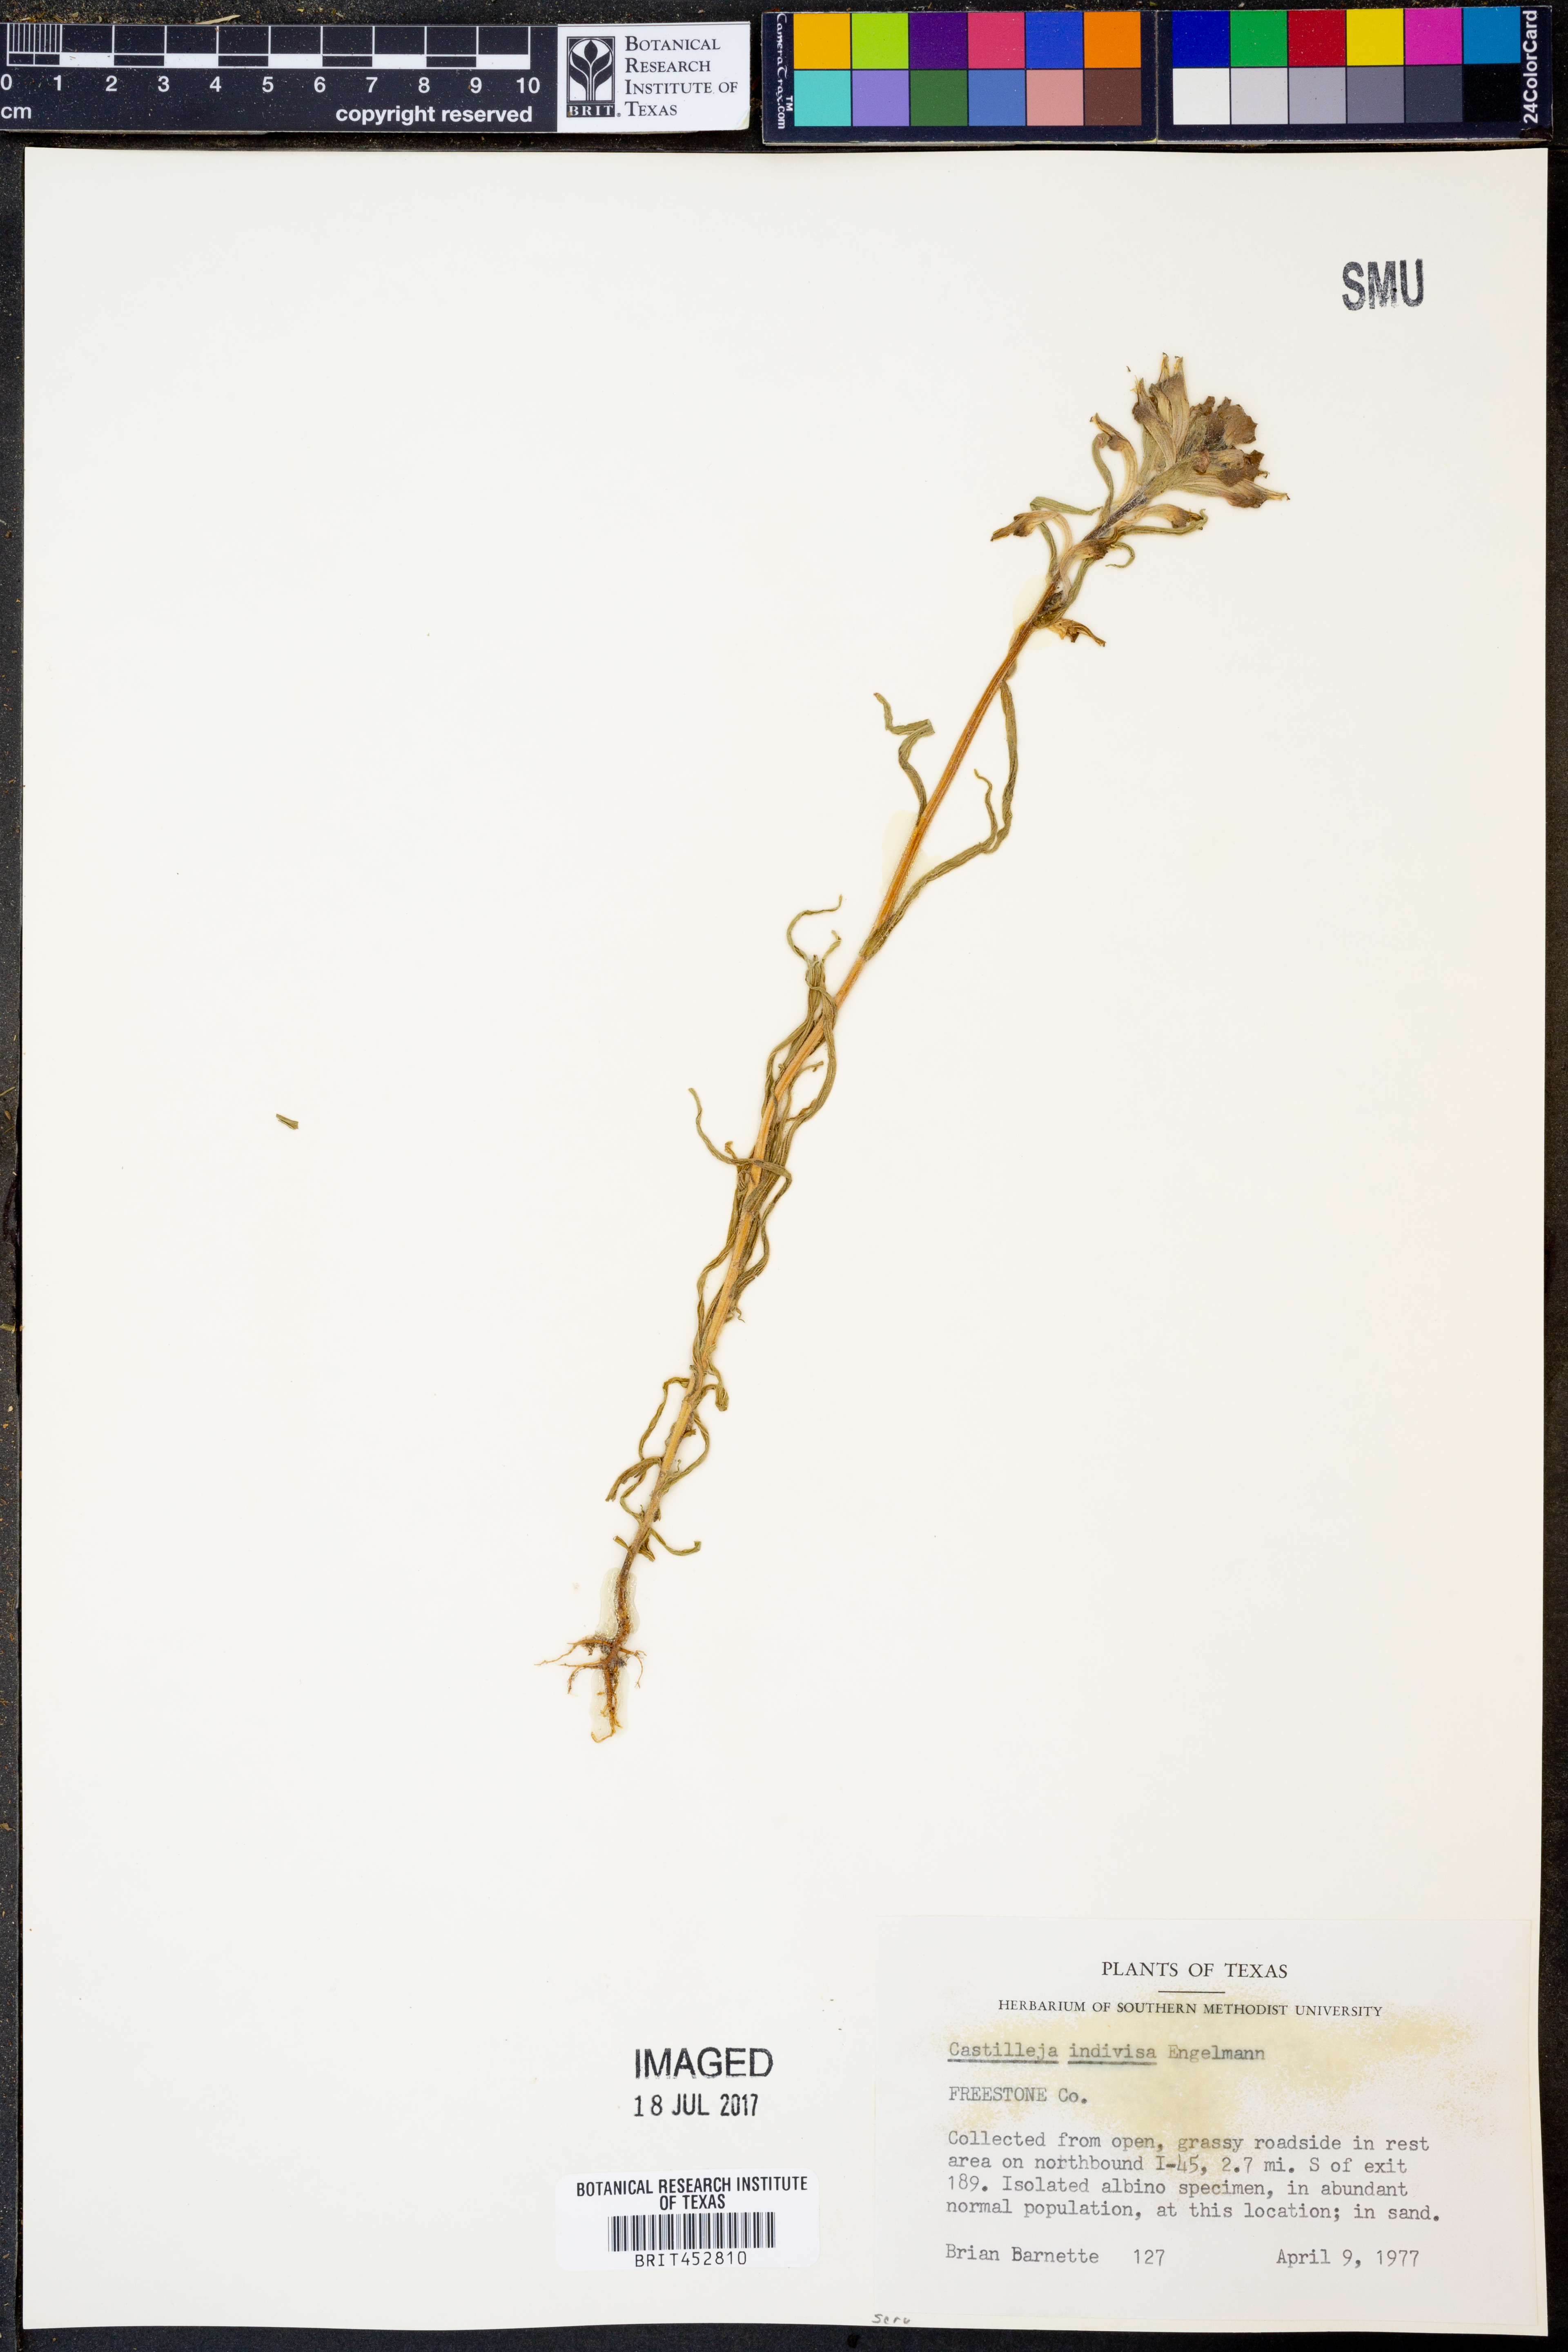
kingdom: Plantae
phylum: Tracheophyta
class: Magnoliopsida
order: Lamiales
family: Orobanchaceae
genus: Castilleja
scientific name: Castilleja indivisa
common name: Texas paintbrush
